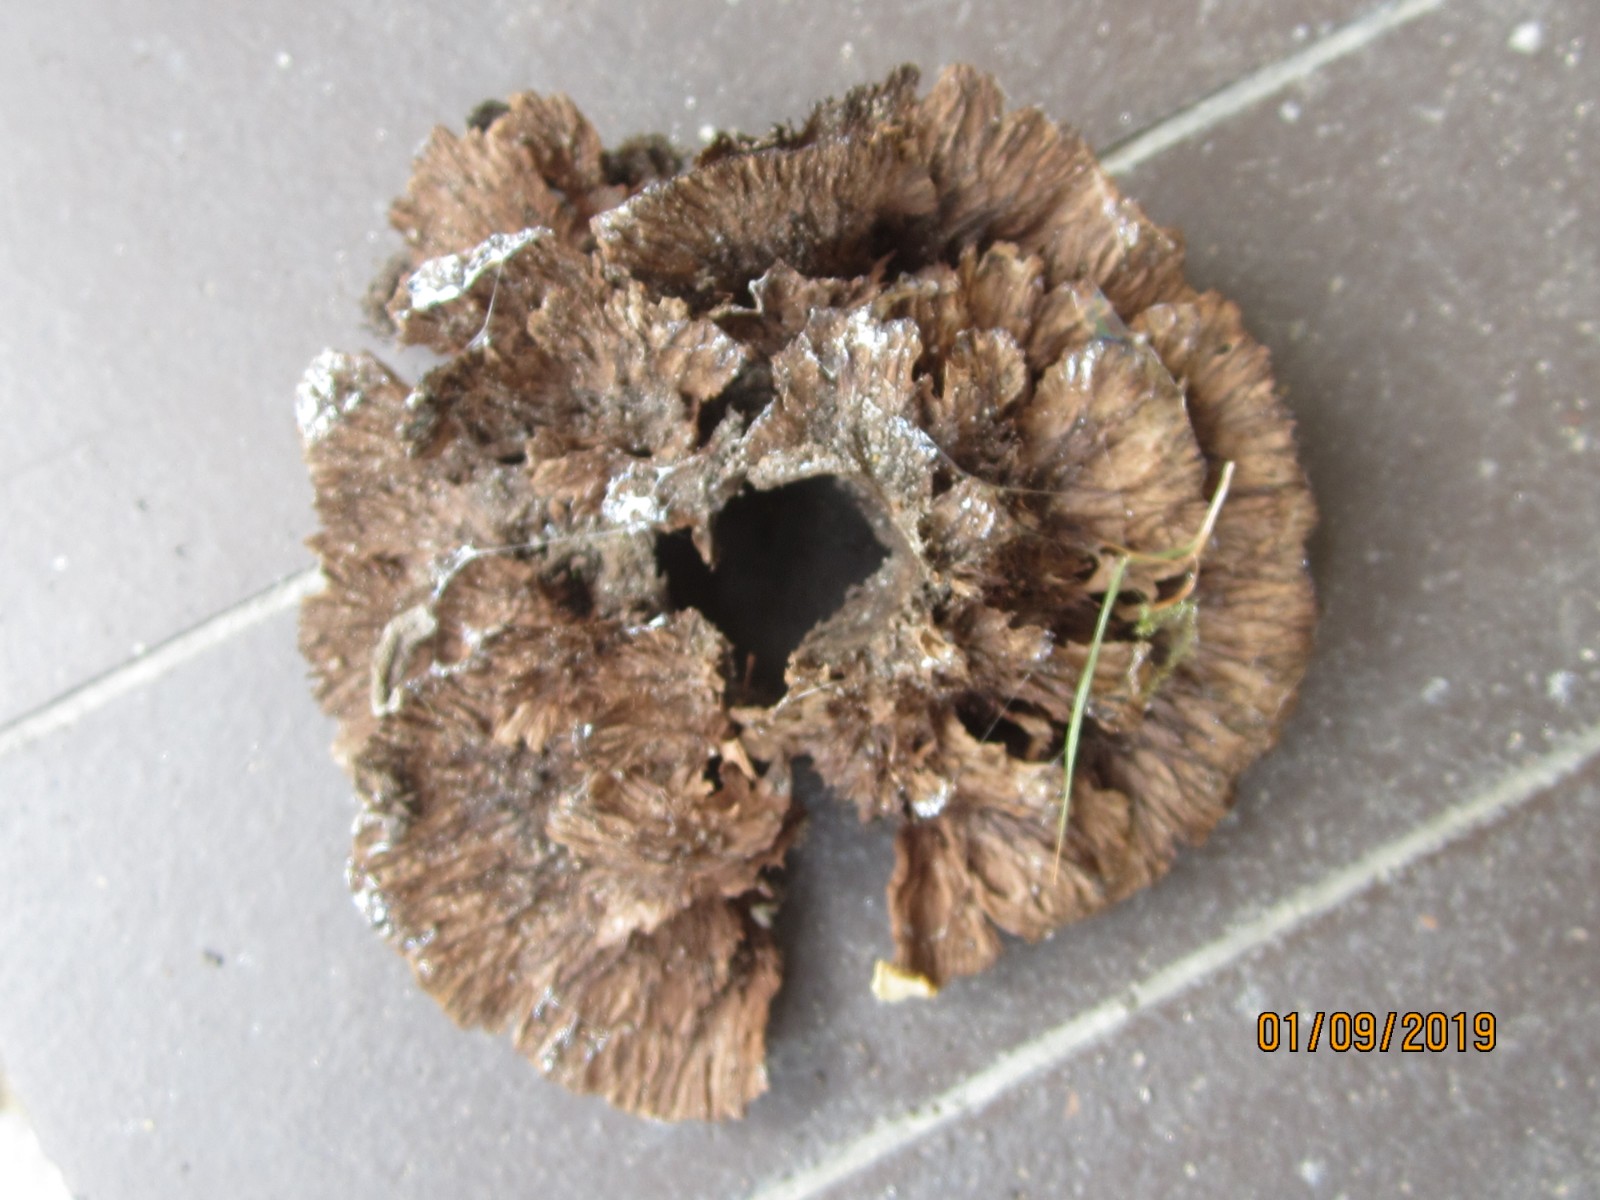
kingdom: Fungi
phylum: Basidiomycota
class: Agaricomycetes
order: Thelephorales
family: Thelephoraceae
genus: Thelephora
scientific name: Thelephora terrestris
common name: fliget frynsesvamp
